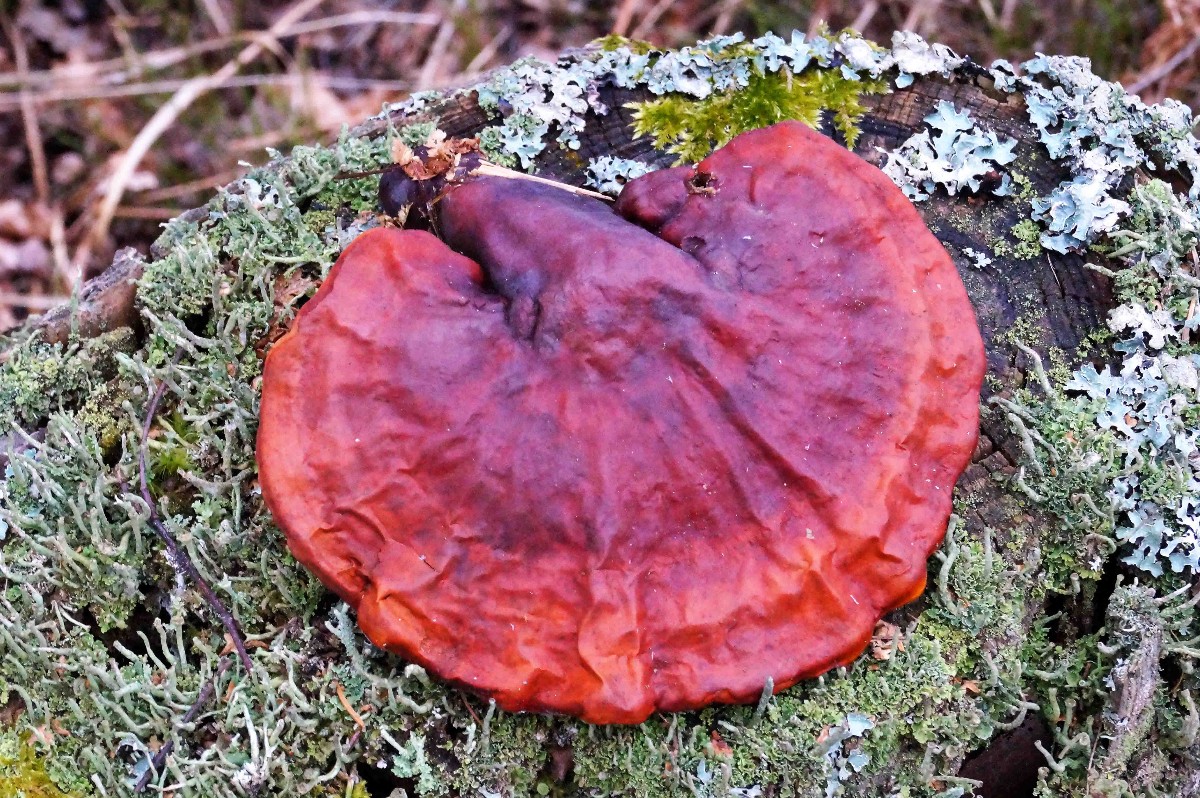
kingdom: Fungi
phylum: Basidiomycota
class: Agaricomycetes
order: Polyporales
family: Polyporaceae
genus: Ganoderma
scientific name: Ganoderma lucidum
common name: skinnende lakporesvamp
